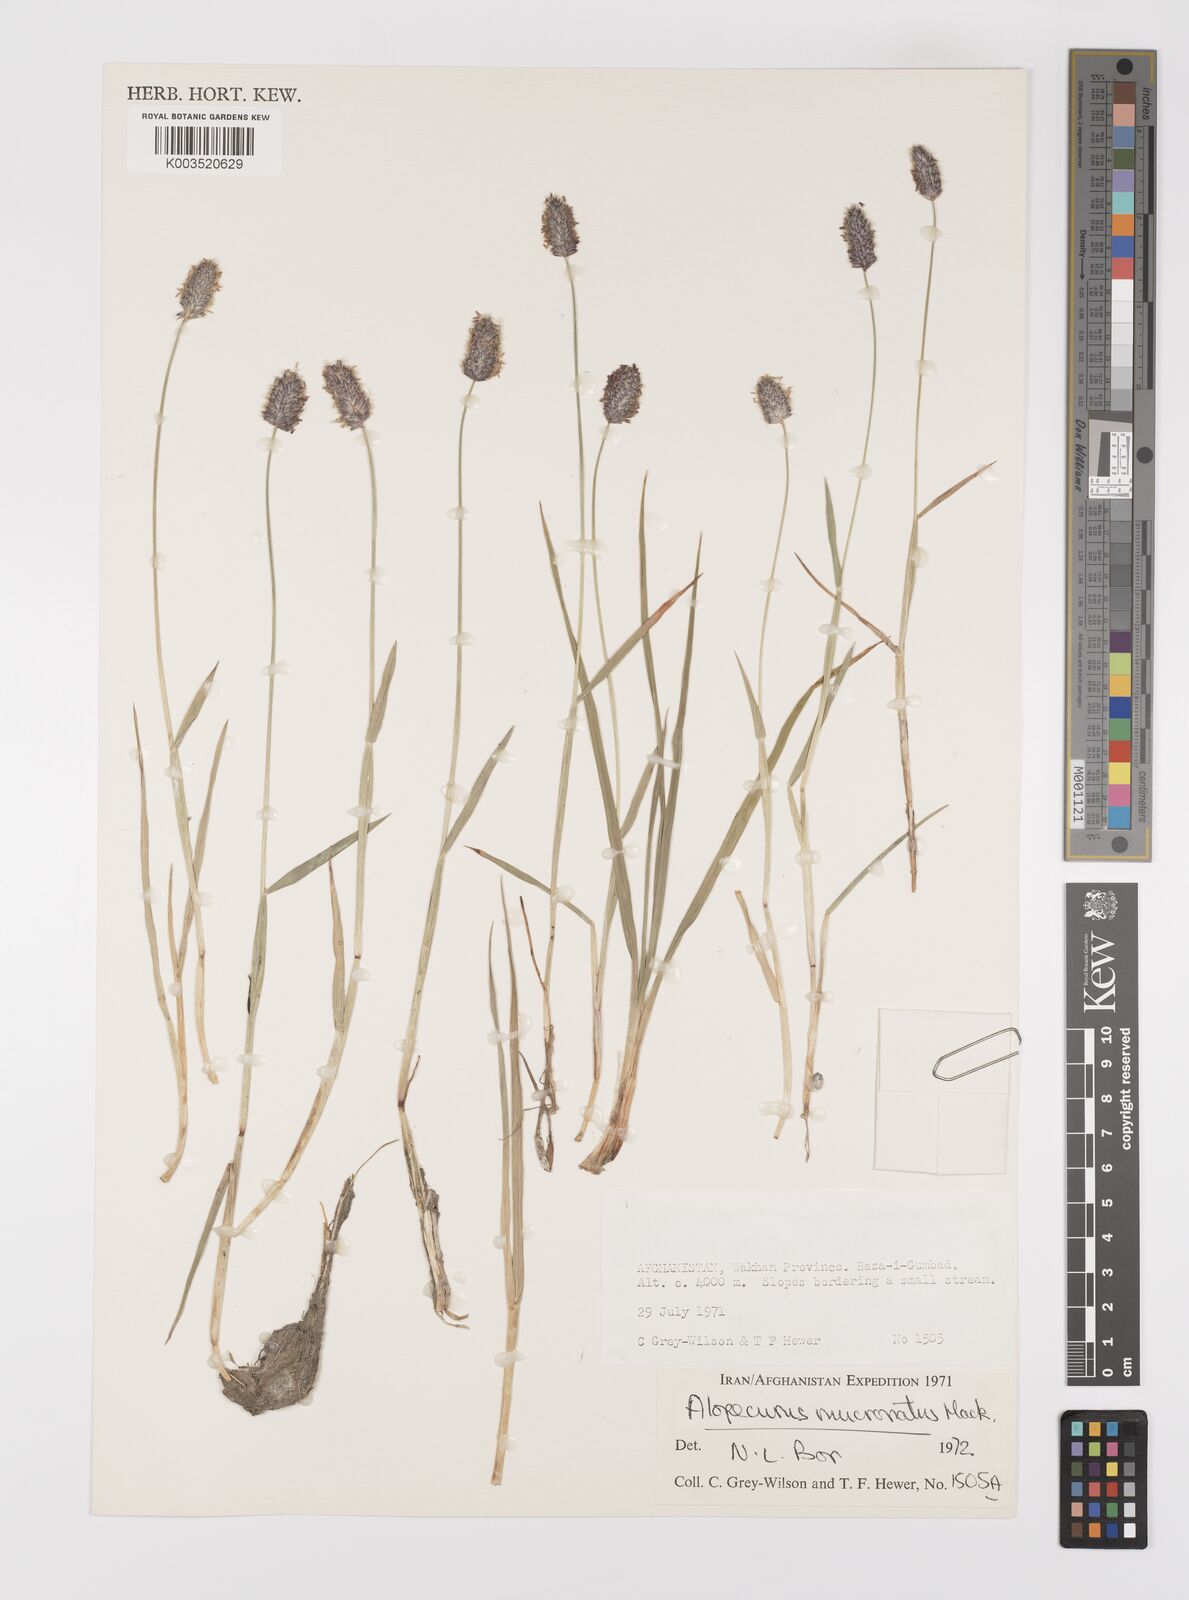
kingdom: Plantae
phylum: Tracheophyta
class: Liliopsida
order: Poales
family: Poaceae
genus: Alopecurus
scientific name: Alopecurus mucronatus
